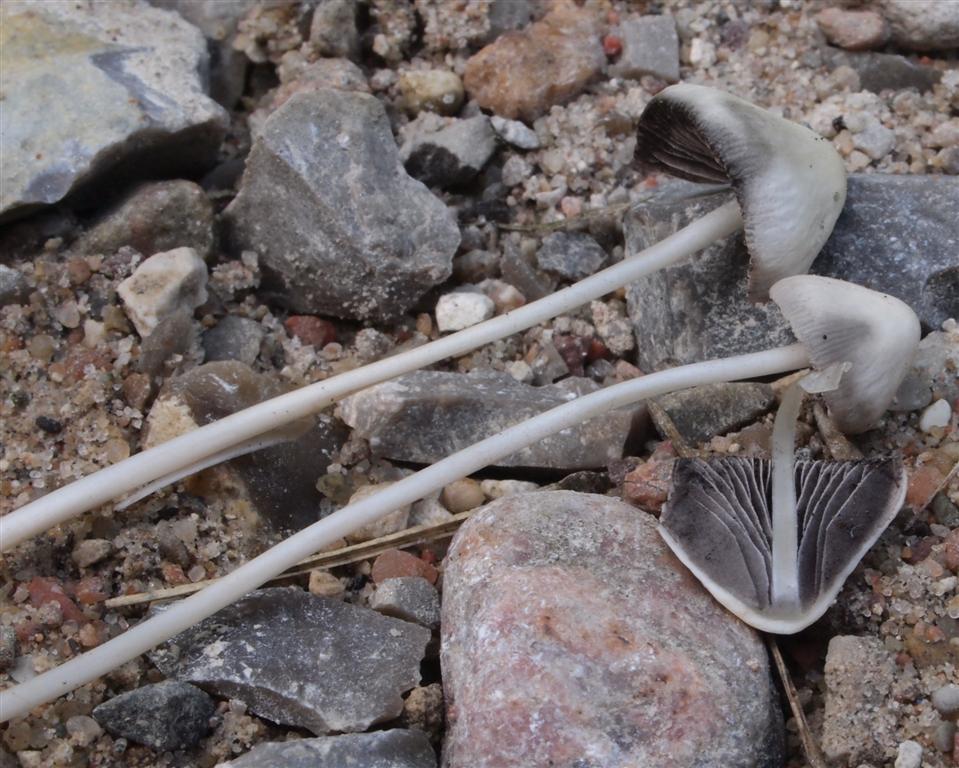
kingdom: Fungi
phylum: Basidiomycota
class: Agaricomycetes
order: Agaricales
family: Psathyrellaceae
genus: Psathyrella
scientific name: Psathyrella pseudogracilis
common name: slank mørkhat
